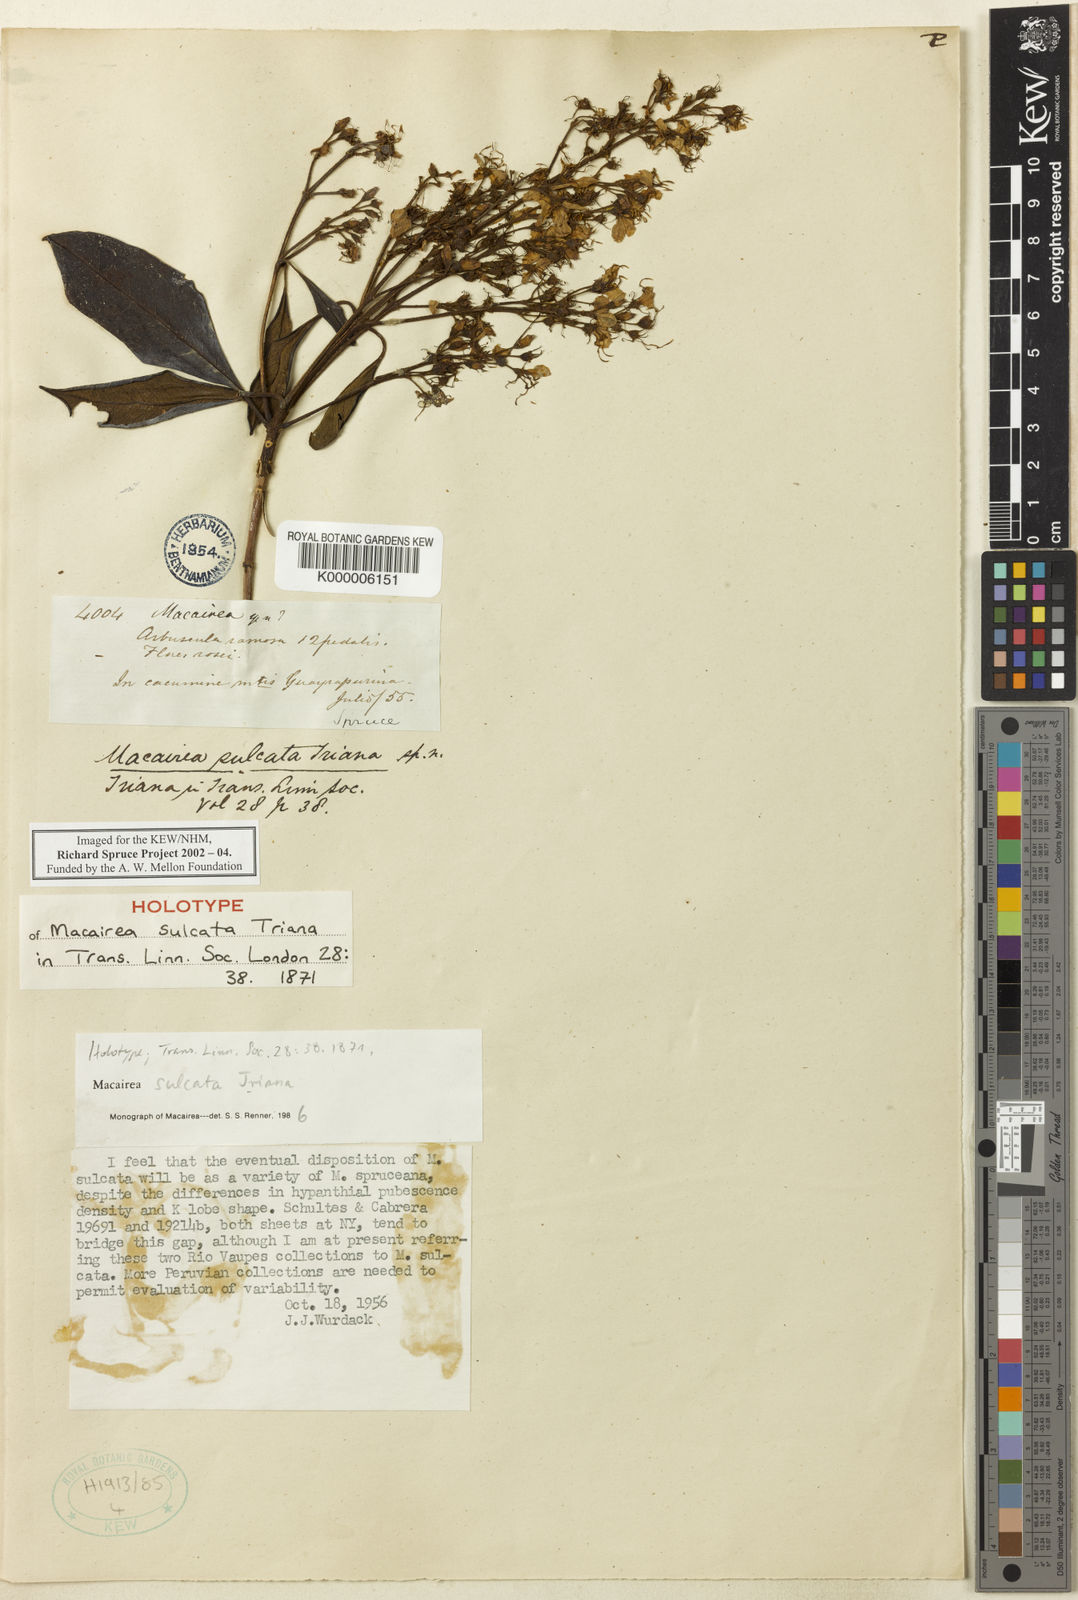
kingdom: Plantae
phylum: Tracheophyta
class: Magnoliopsida
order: Myrtales
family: Melastomataceae
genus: Macairea
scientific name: Macairea sulcata
